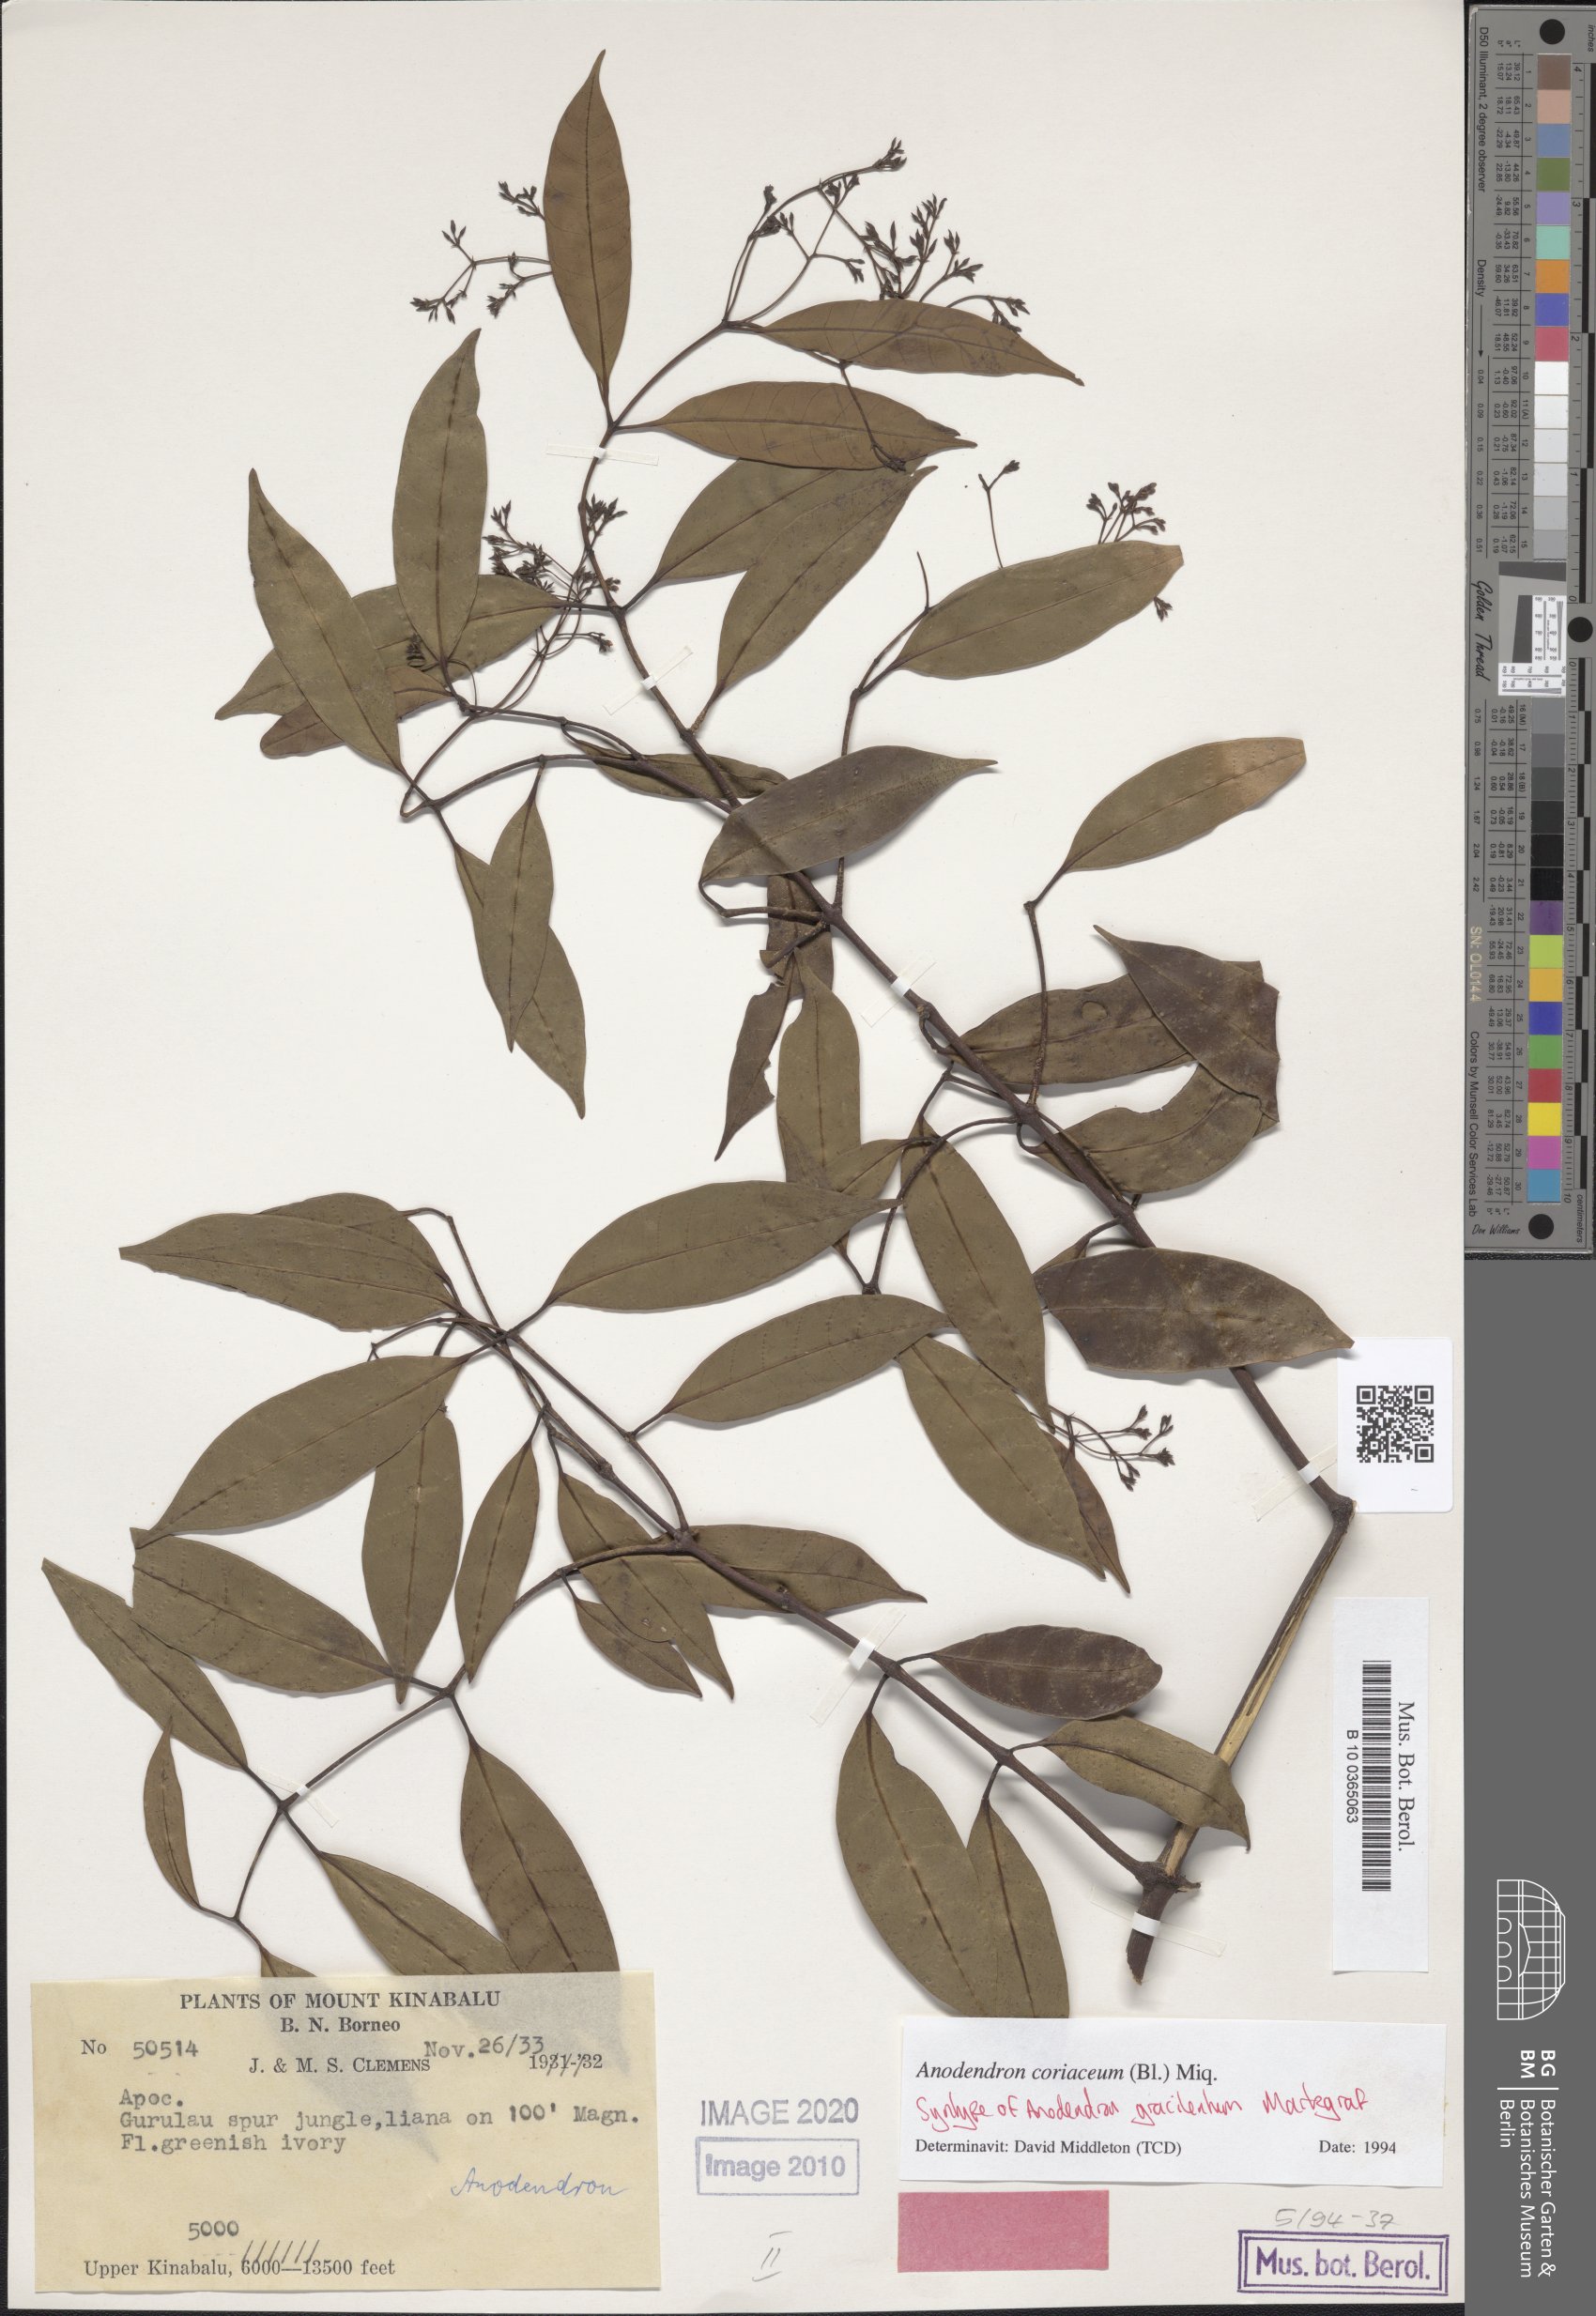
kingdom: Plantae
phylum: Tracheophyta
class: Magnoliopsida
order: Gentianales
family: Apocynaceae
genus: Anodendron
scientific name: Anodendron coriaceum
